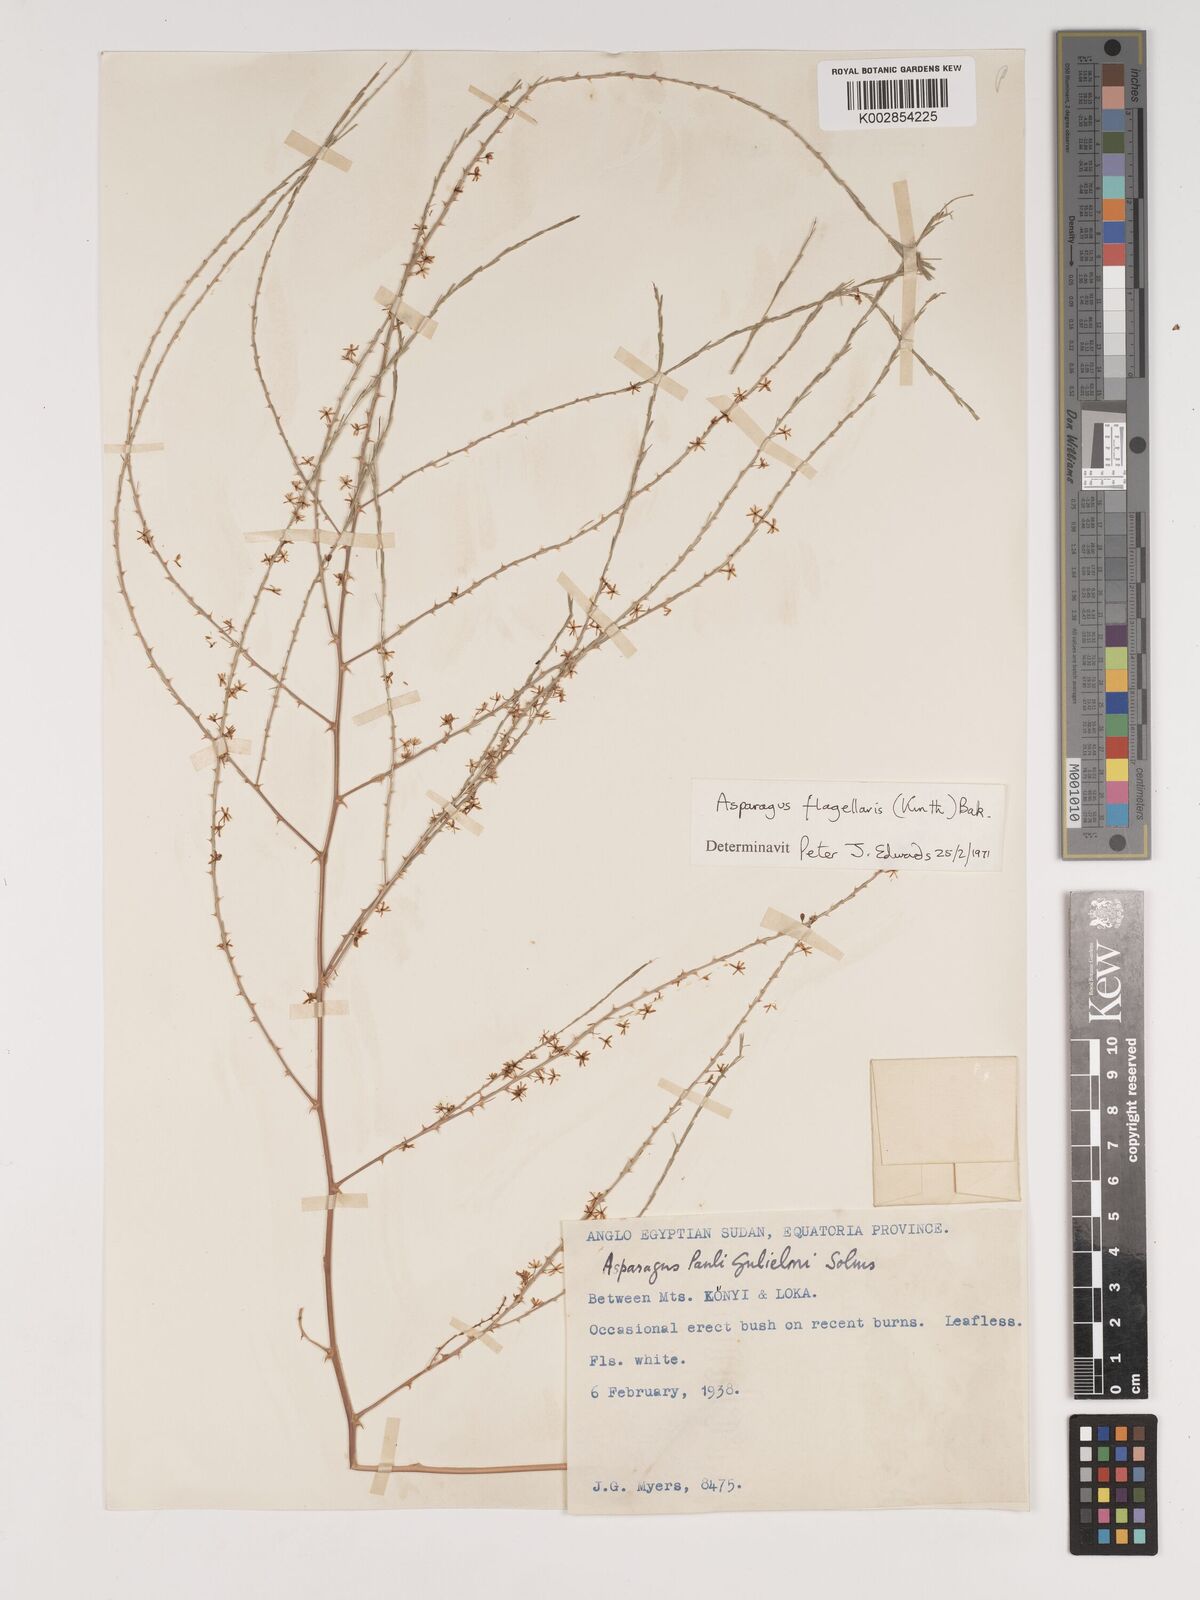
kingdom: Plantae
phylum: Tracheophyta
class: Liliopsida
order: Asparagales
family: Asparagaceae
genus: Asparagus
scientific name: Asparagus flagellaris
